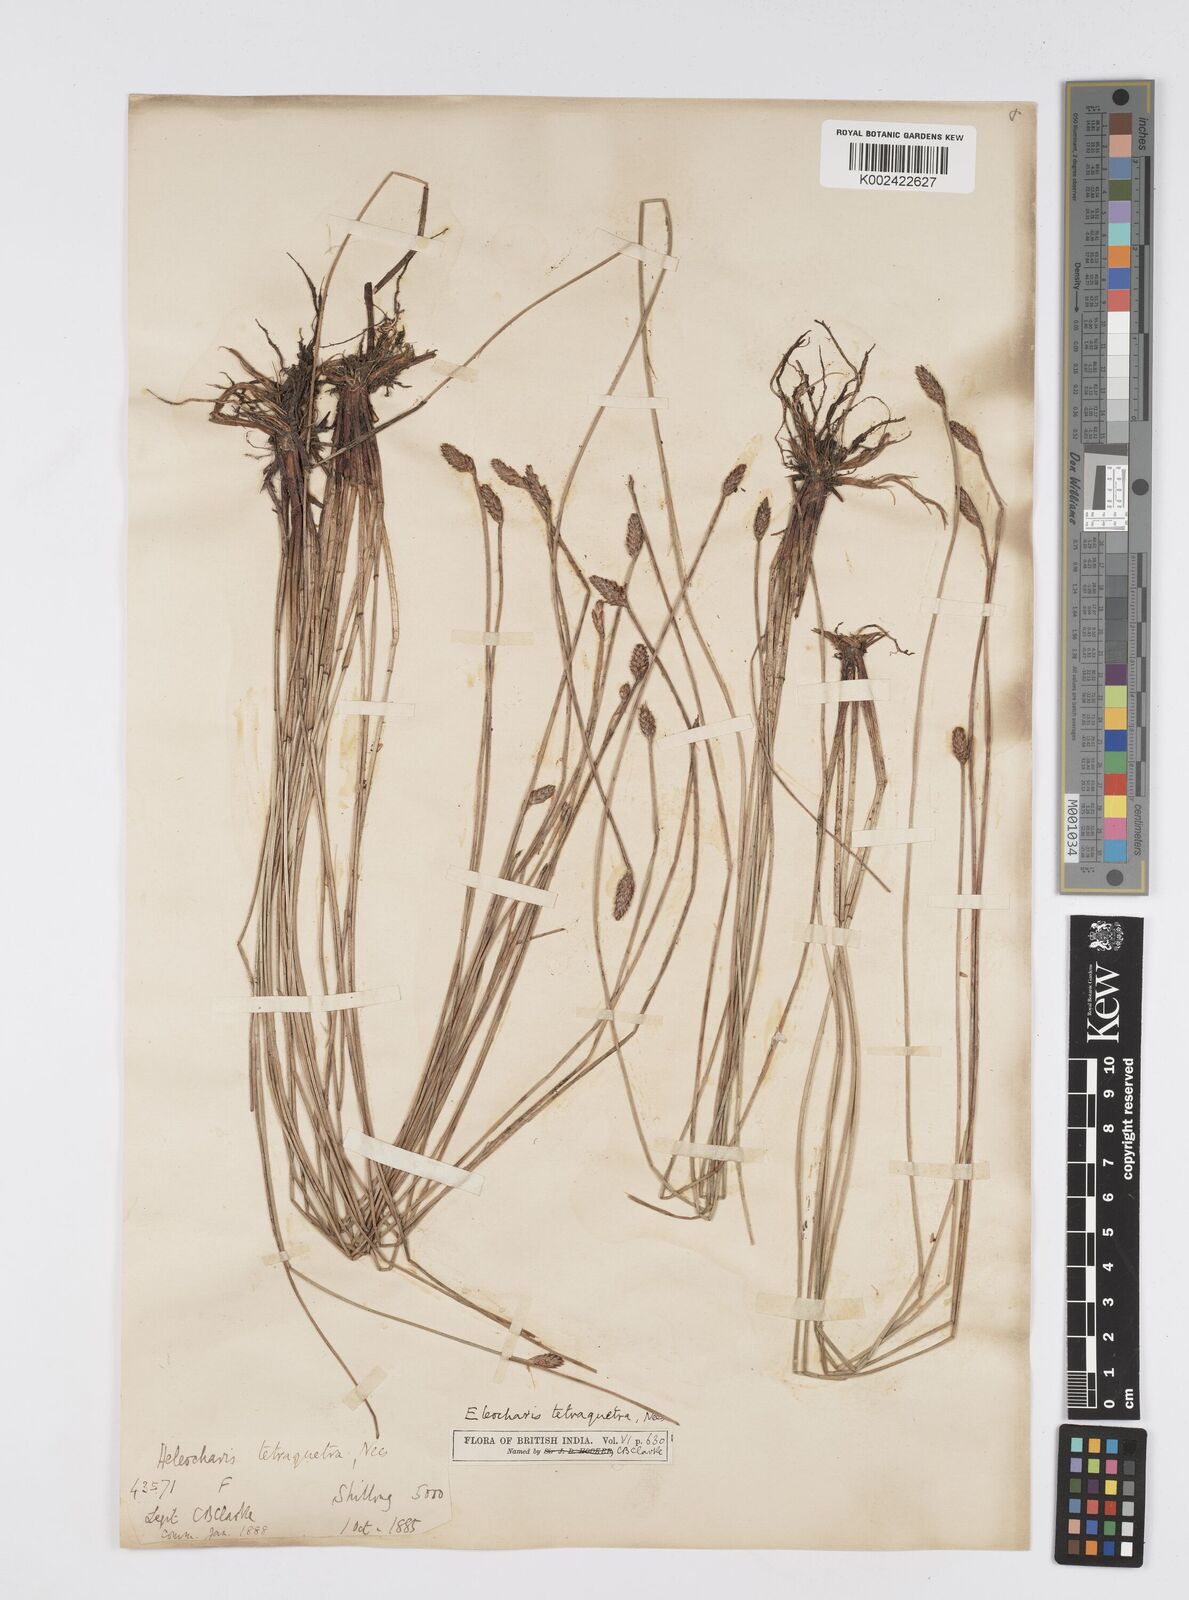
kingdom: Plantae
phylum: Tracheophyta
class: Liliopsida
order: Poales
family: Cyperaceae
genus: Eleocharis
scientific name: Eleocharis tetraquetra
